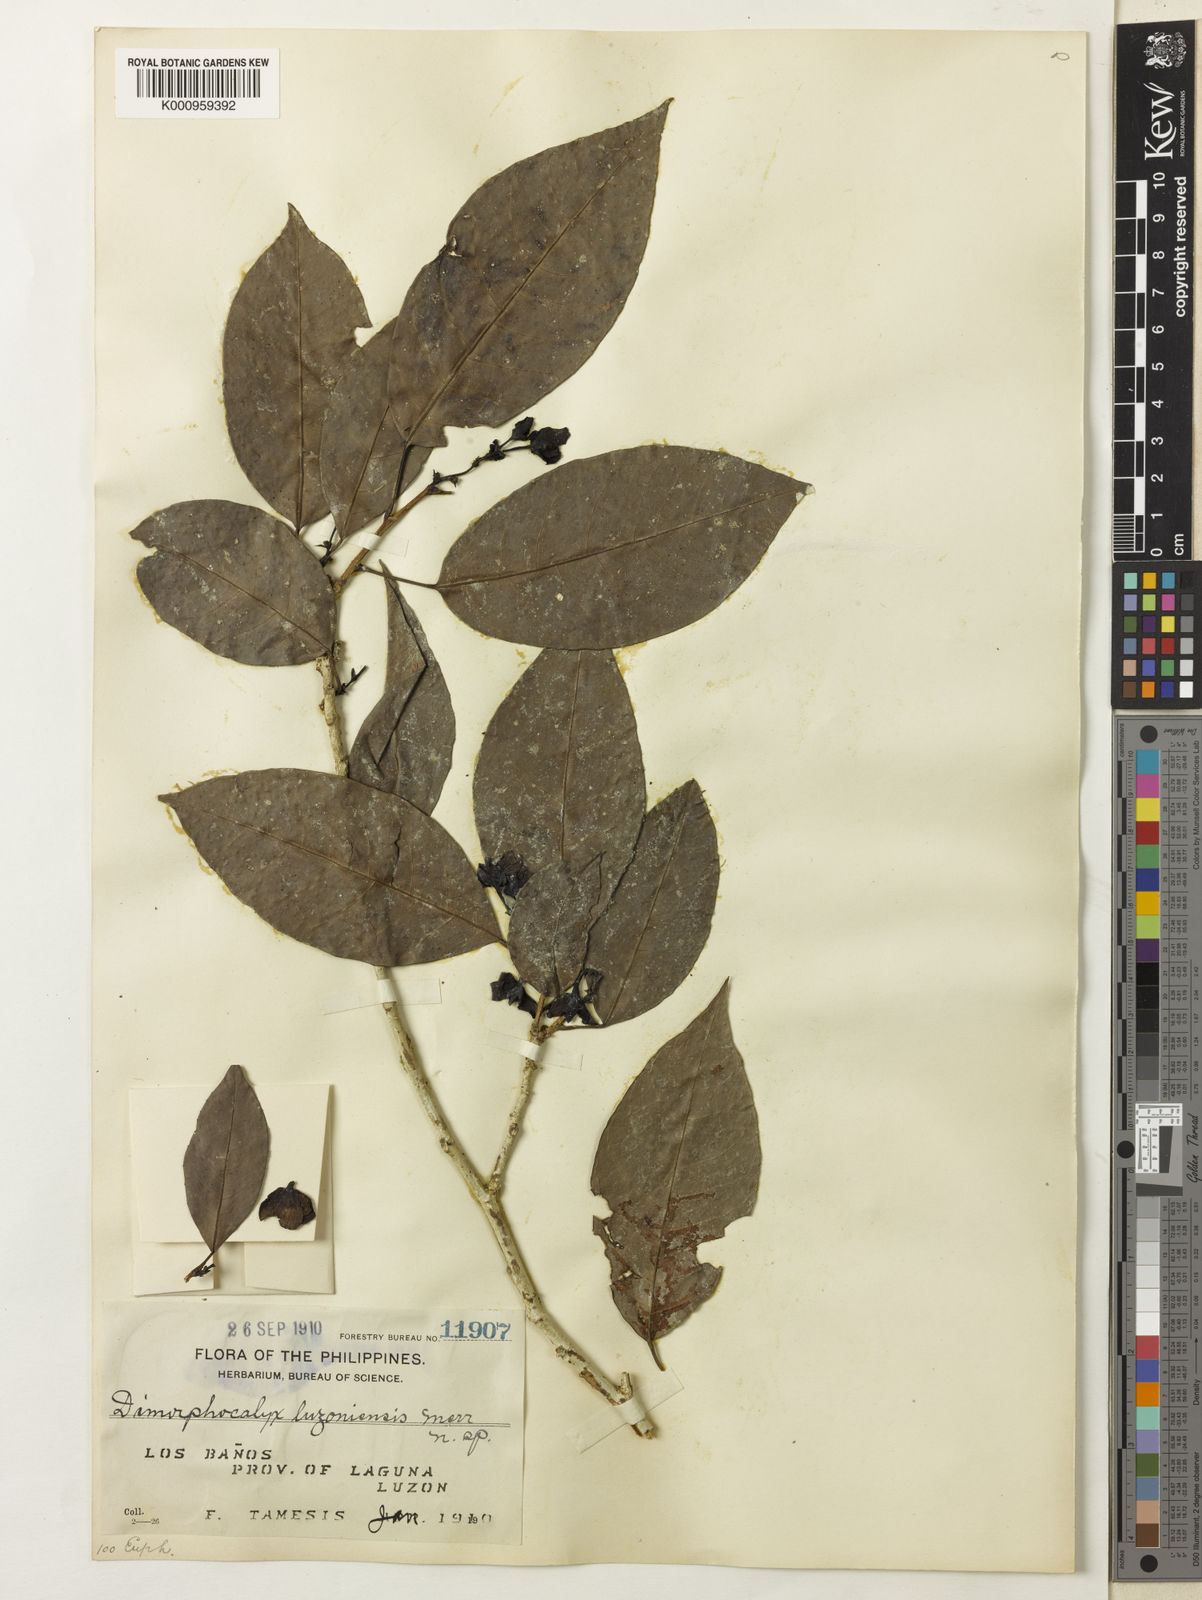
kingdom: Plantae
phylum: Tracheophyta
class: Magnoliopsida
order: Malpighiales
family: Euphorbiaceae
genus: Tritaxis
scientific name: Tritaxis malayana
